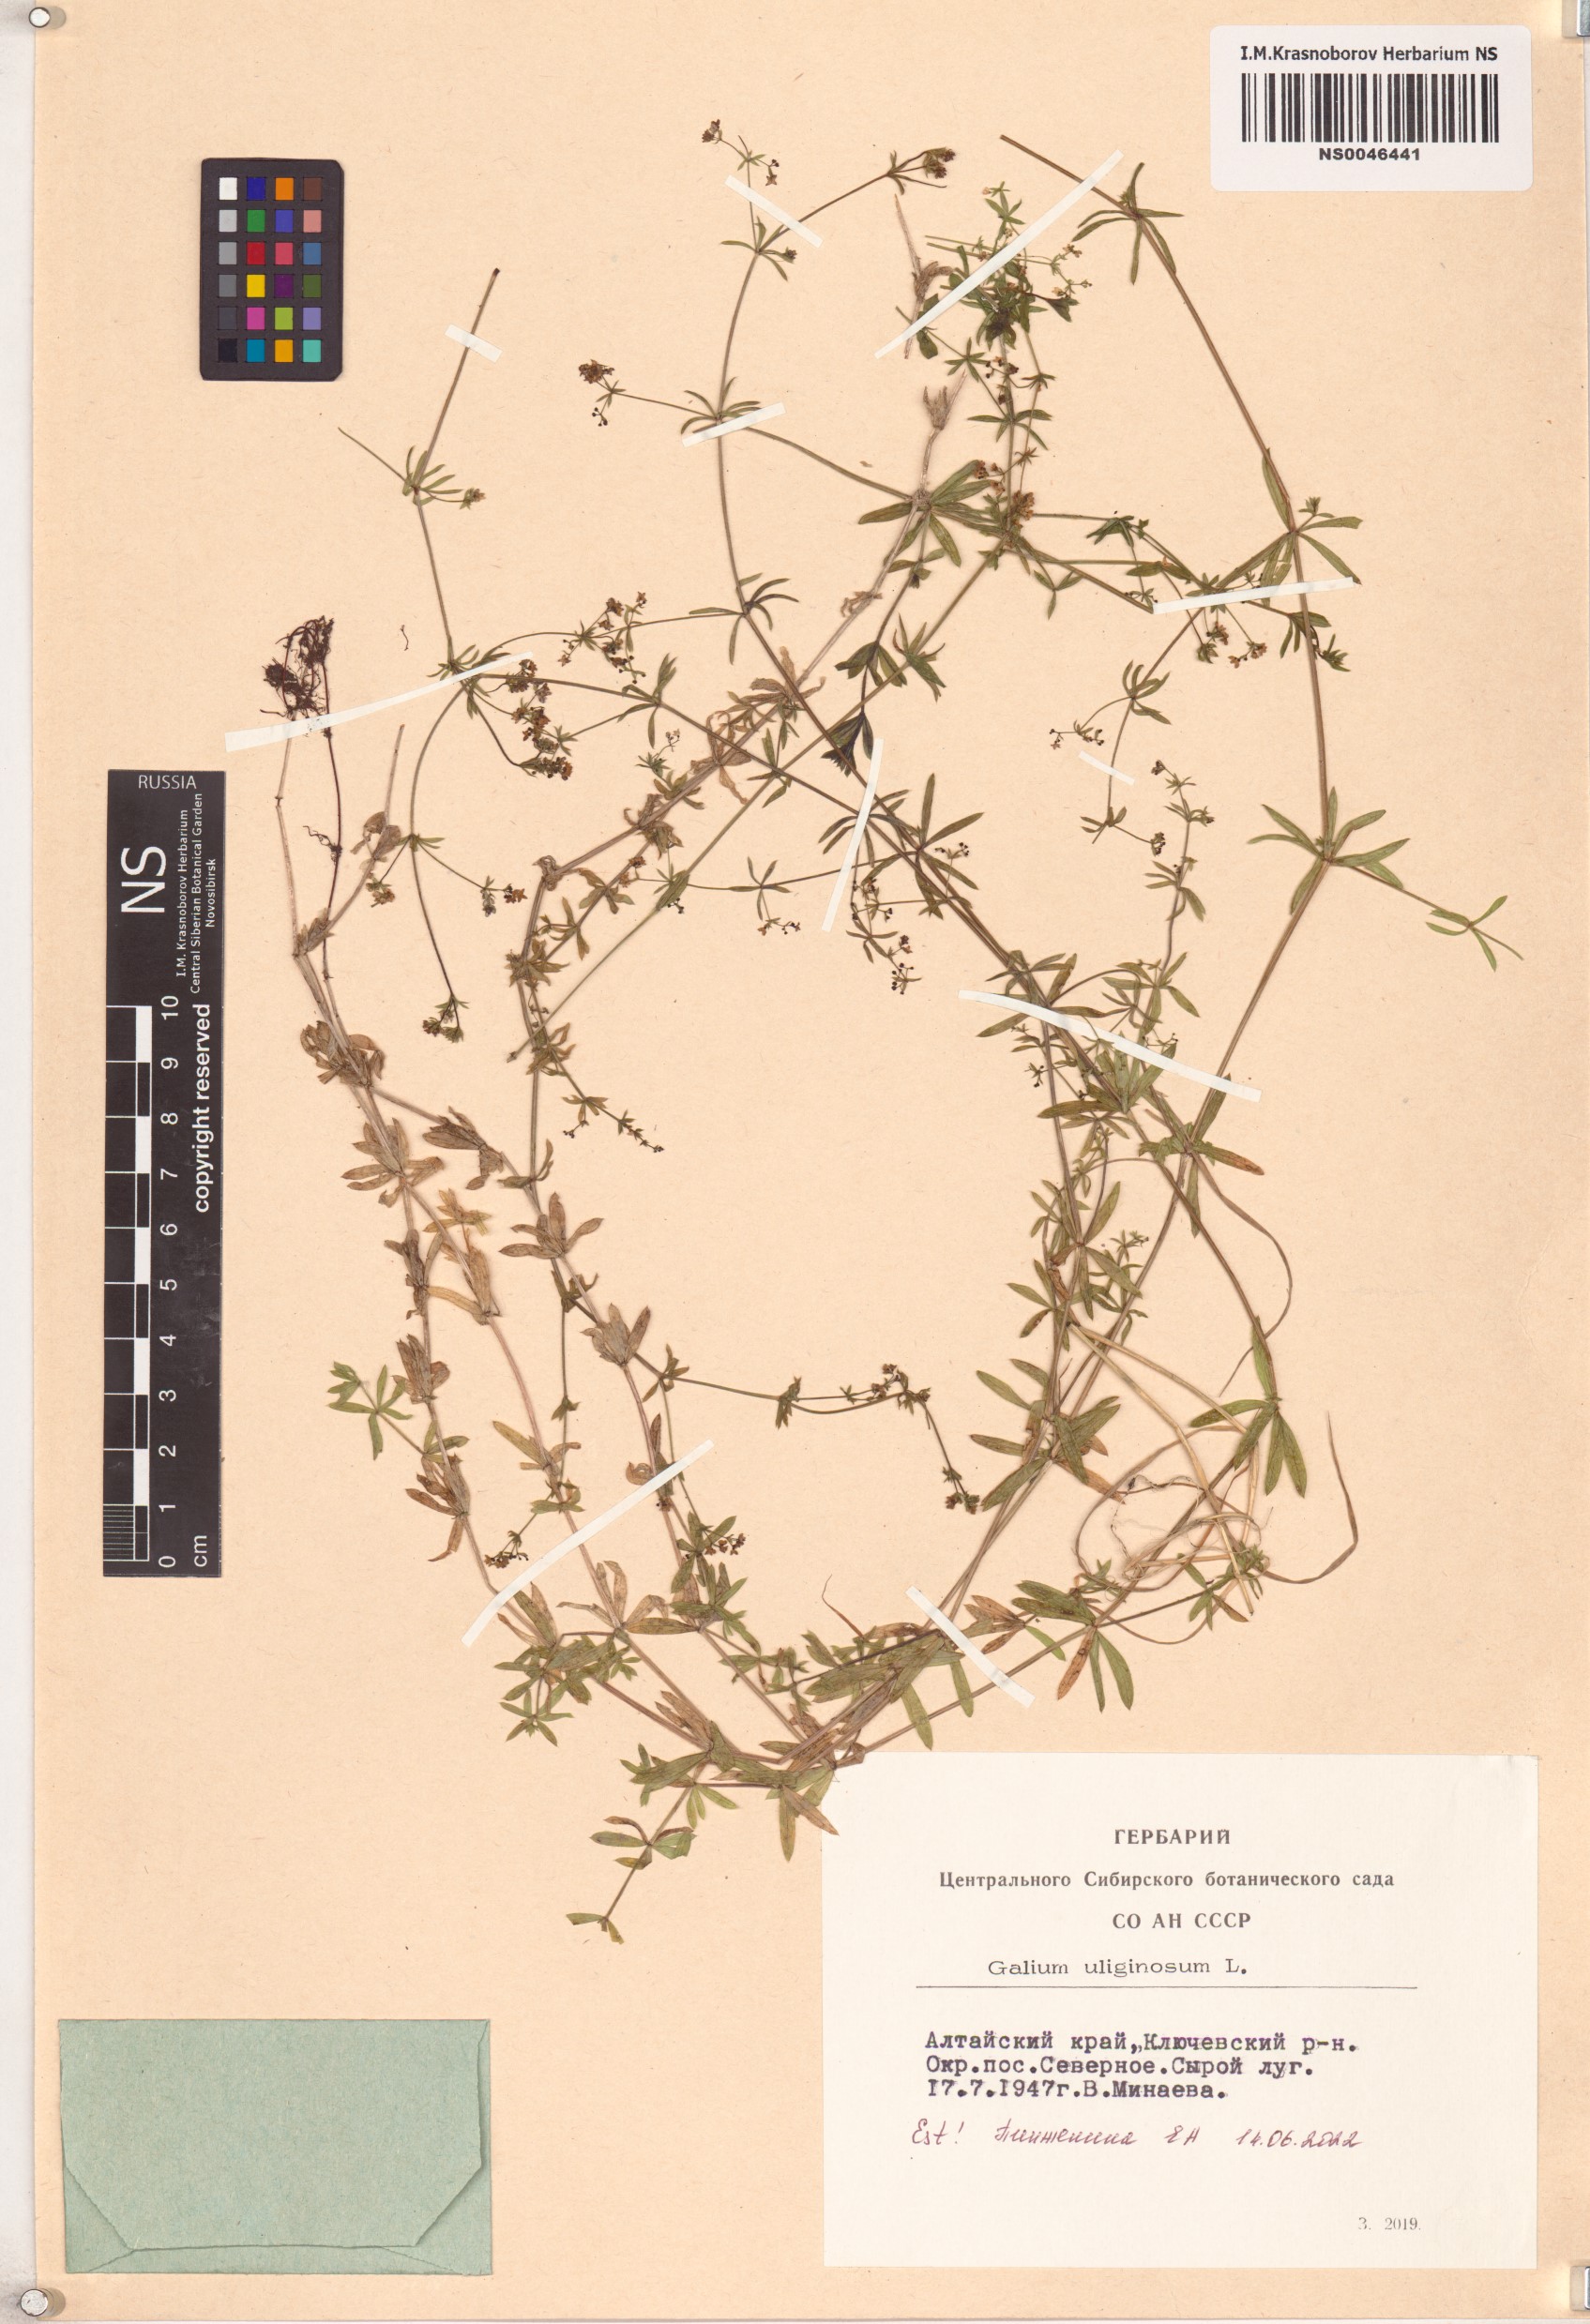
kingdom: Plantae
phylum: Tracheophyta
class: Magnoliopsida
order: Gentianales
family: Rubiaceae
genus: Galium
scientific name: Galium uliginosum
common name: Fen bedstraw
